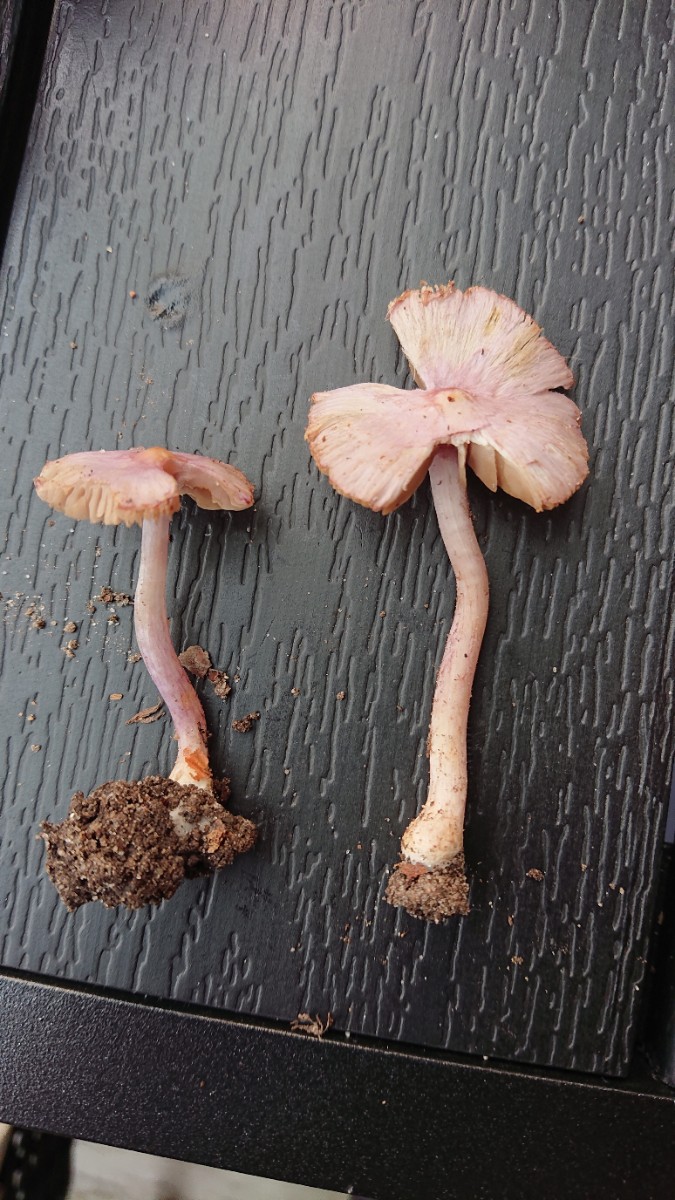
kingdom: Fungi
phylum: Basidiomycota
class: Agaricomycetes
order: Agaricales
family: Inocybaceae
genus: Inocybe
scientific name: Inocybe geophylla
